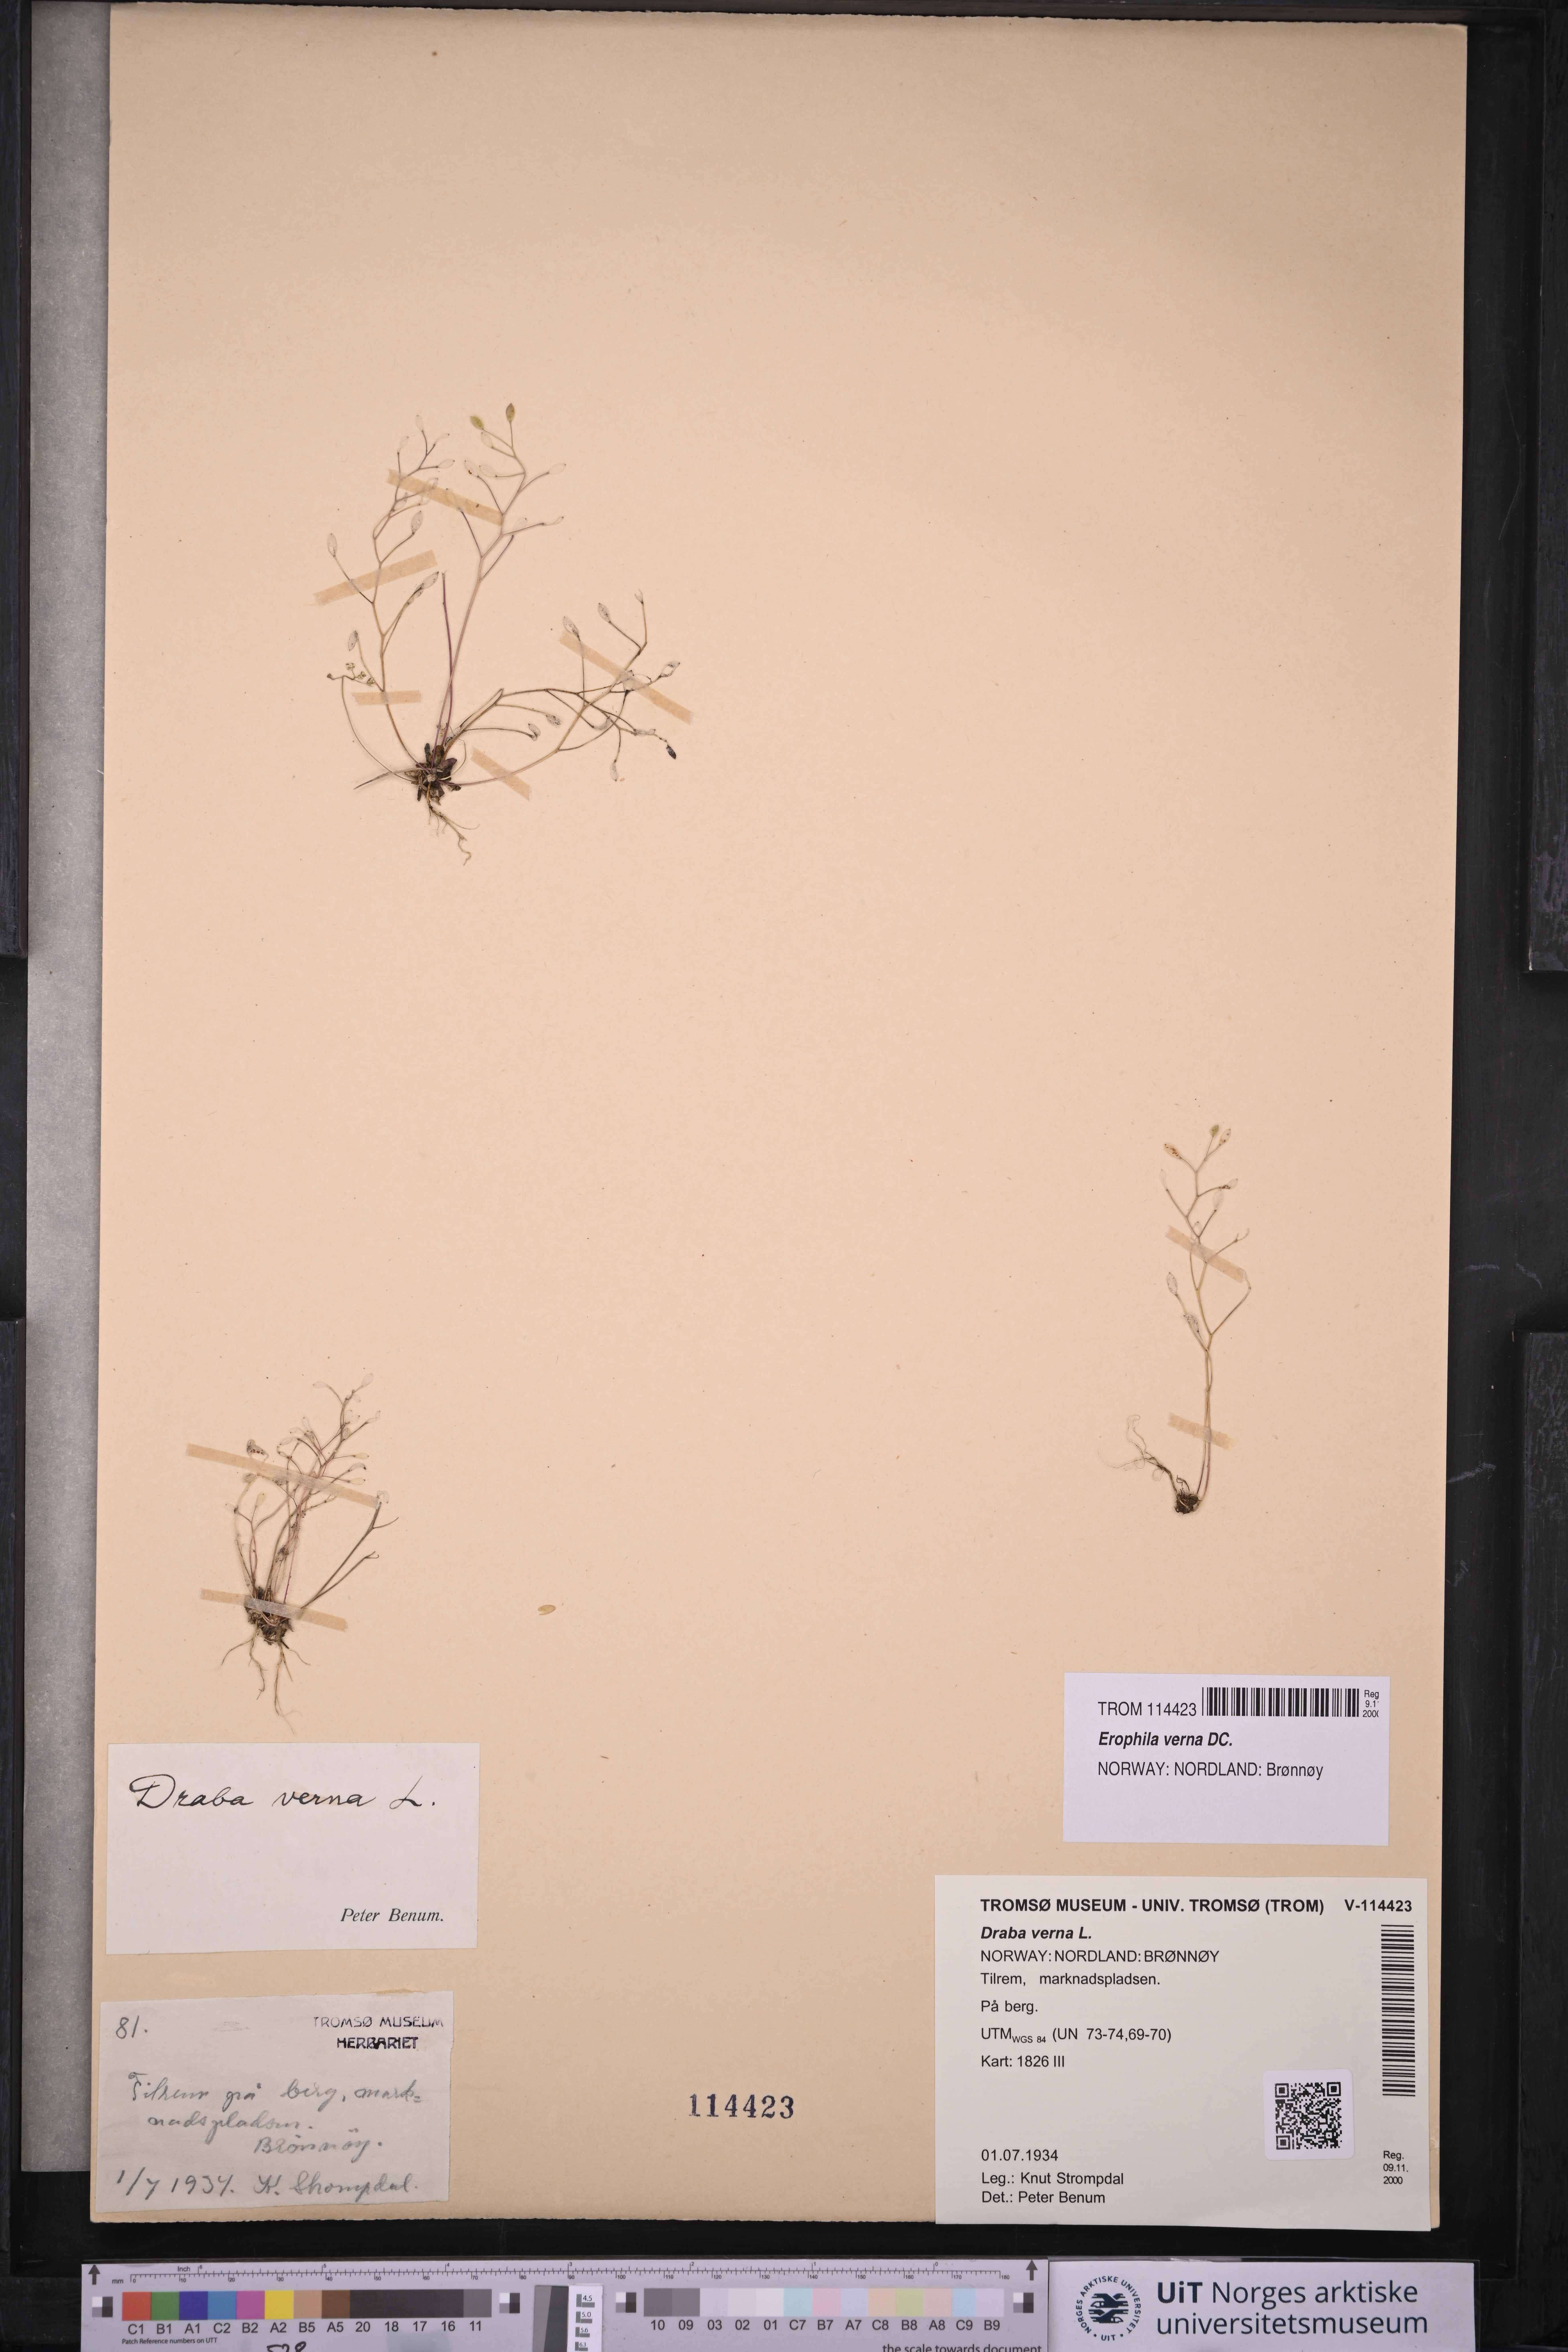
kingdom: Plantae
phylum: Tracheophyta
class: Magnoliopsida
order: Brassicales
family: Brassicaceae
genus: Draba
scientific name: Draba verna
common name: Spring draba
